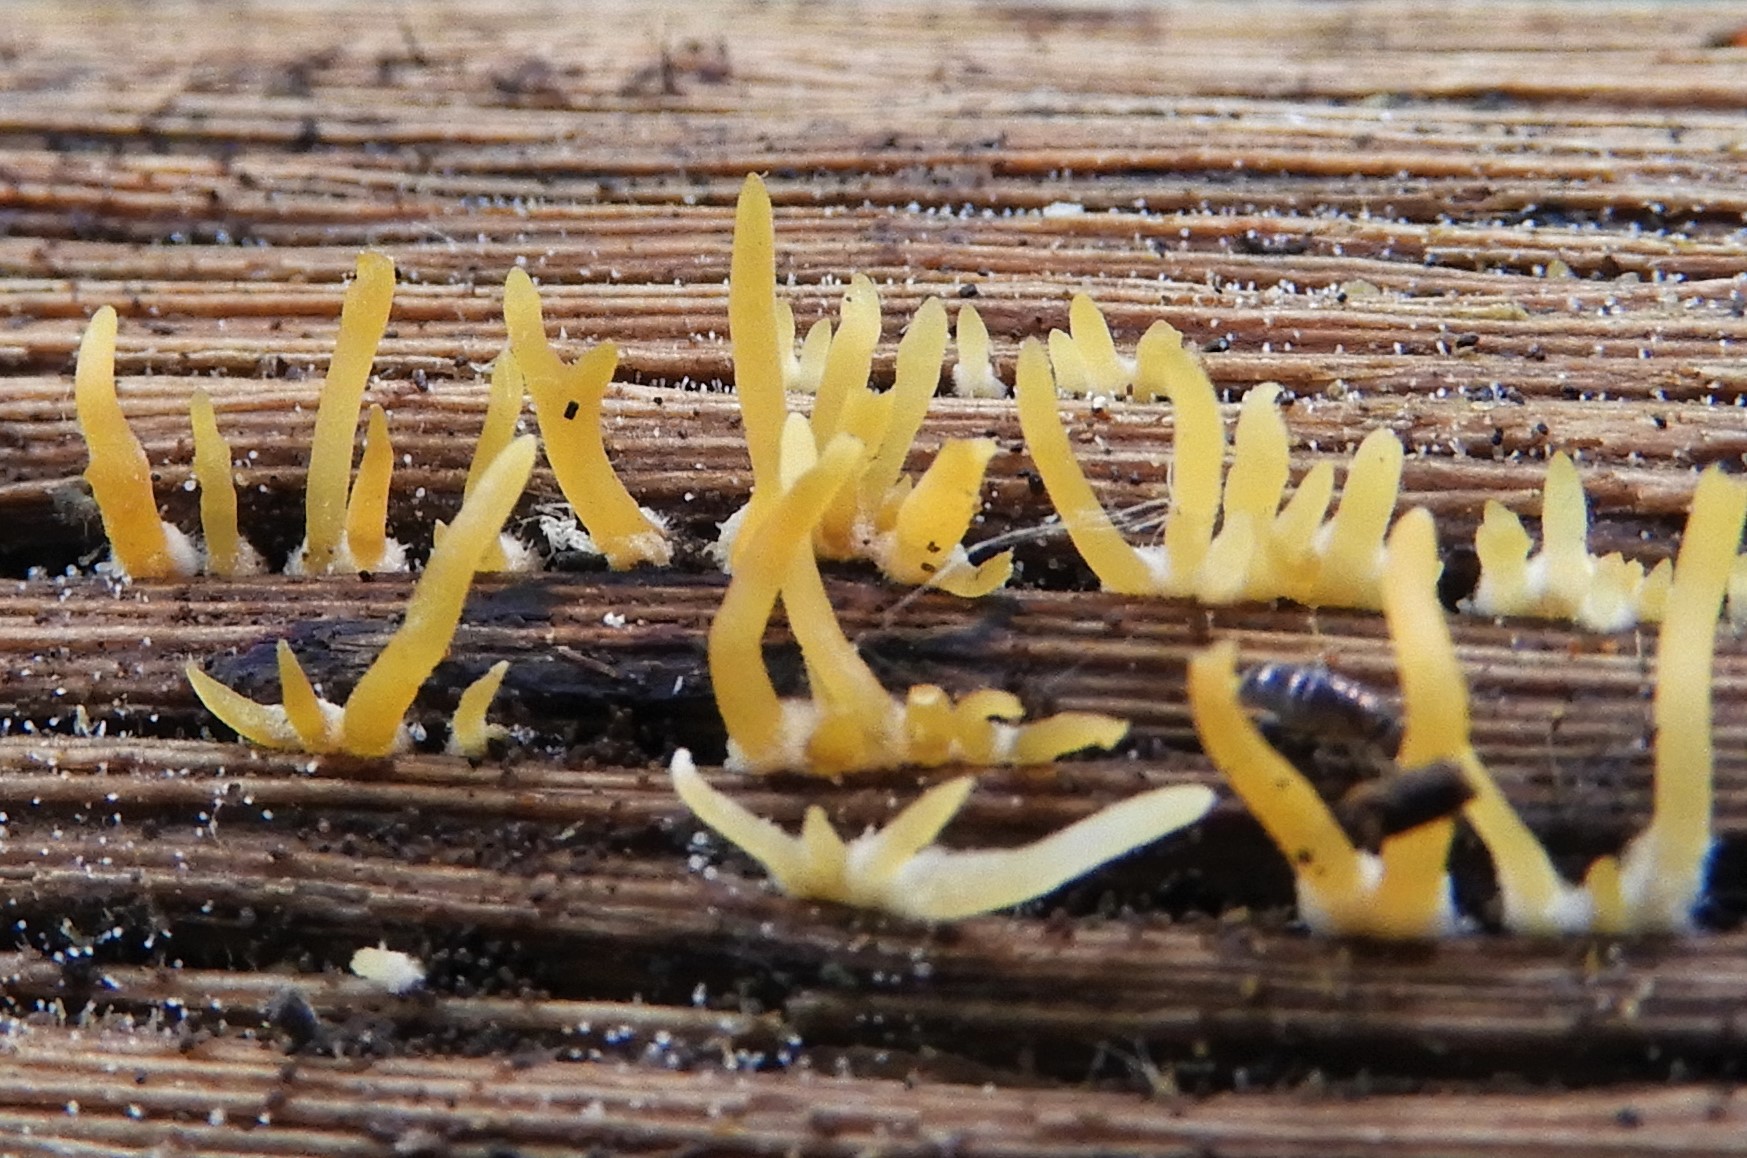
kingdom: Fungi
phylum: Basidiomycota
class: Dacrymycetes
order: Dacrymycetales
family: Dacrymycetaceae
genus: Calocera
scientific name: Calocera cornea
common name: liden guldgaffel
